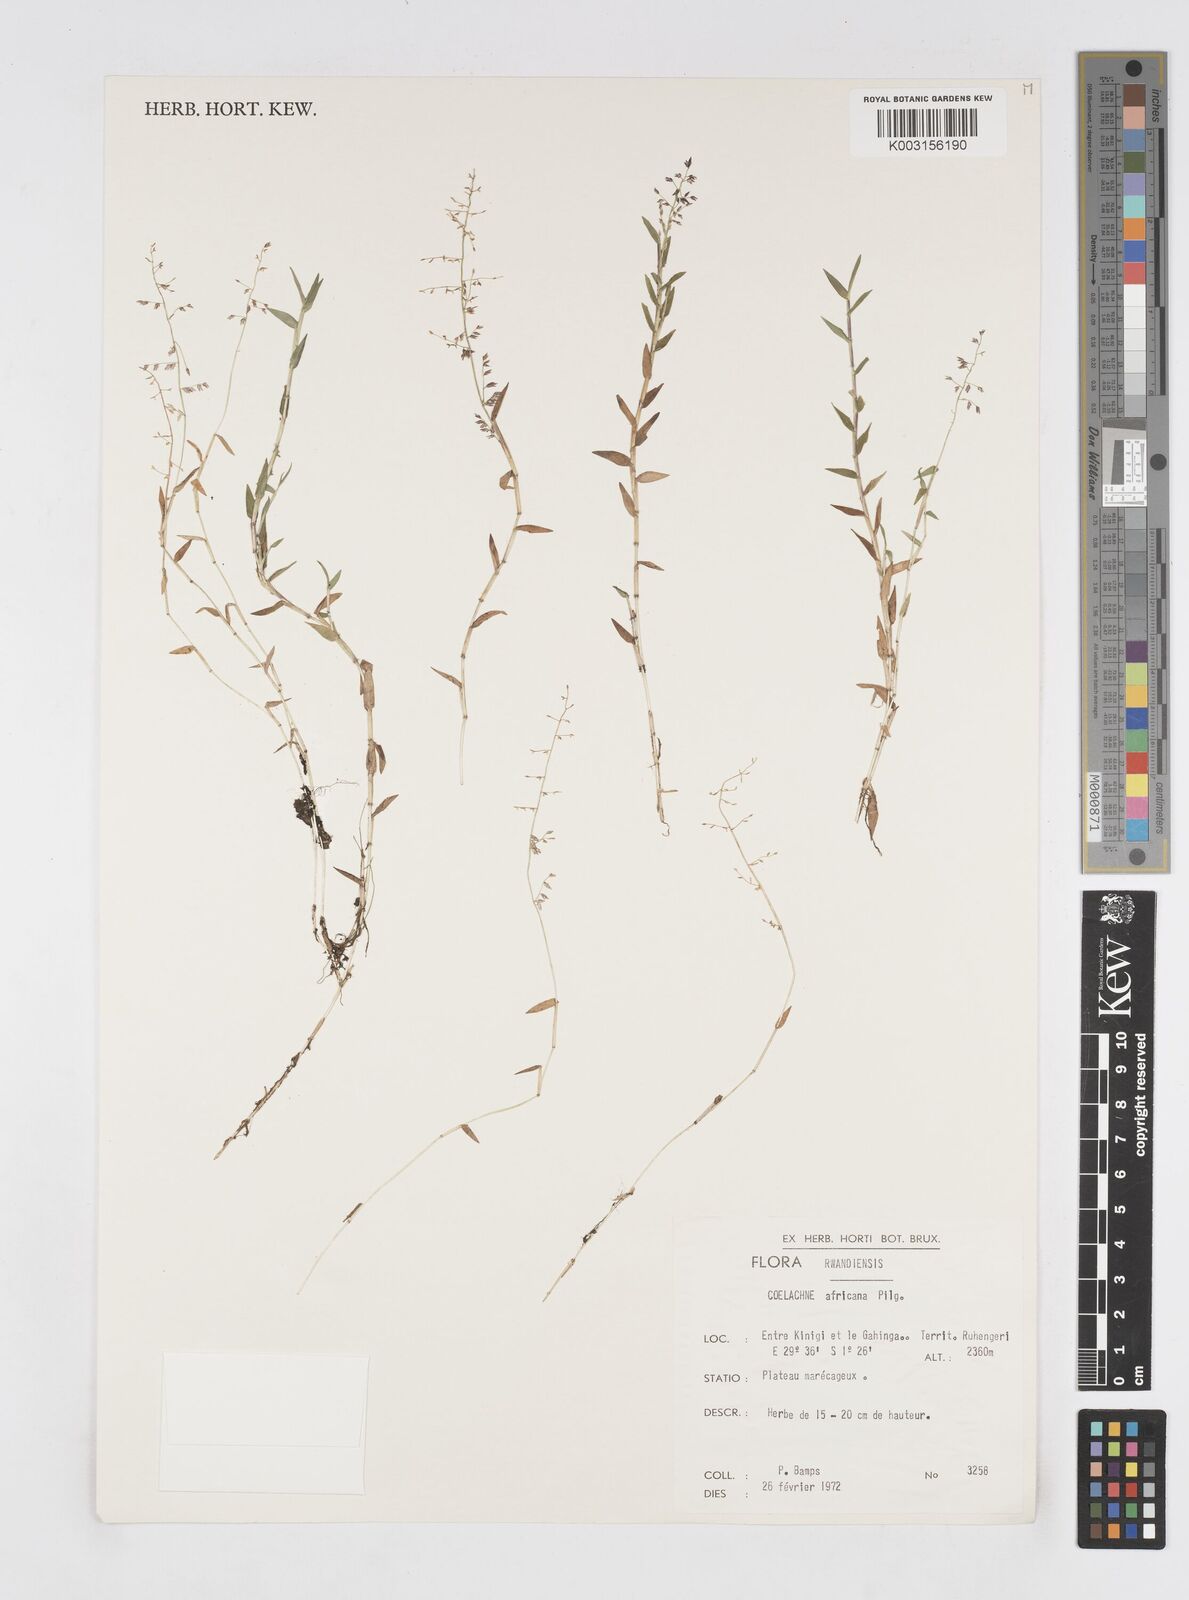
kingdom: Plantae
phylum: Tracheophyta
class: Liliopsida
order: Poales
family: Poaceae
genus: Coelachne
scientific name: Coelachne africana
